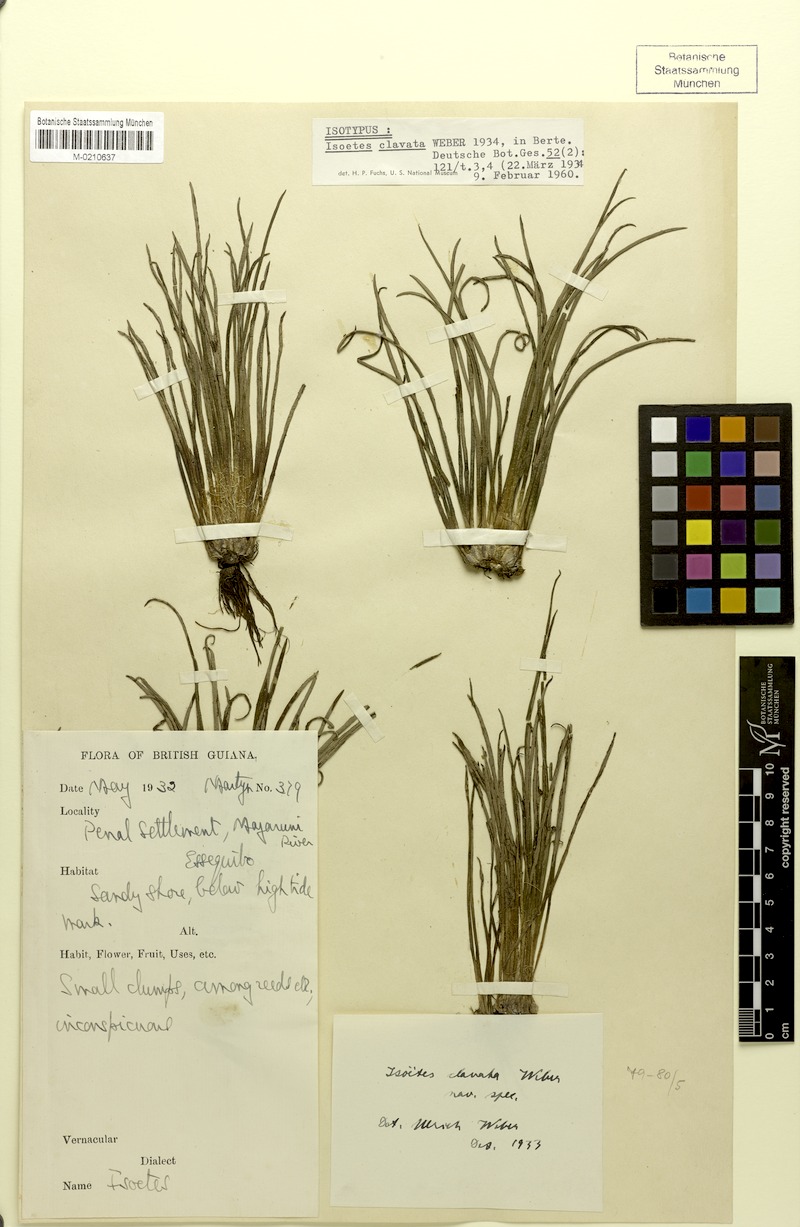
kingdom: Plantae
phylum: Tracheophyta
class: Lycopodiopsida
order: Isoetales
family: Isoetaceae
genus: Isoetes
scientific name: Isoetes ovata
